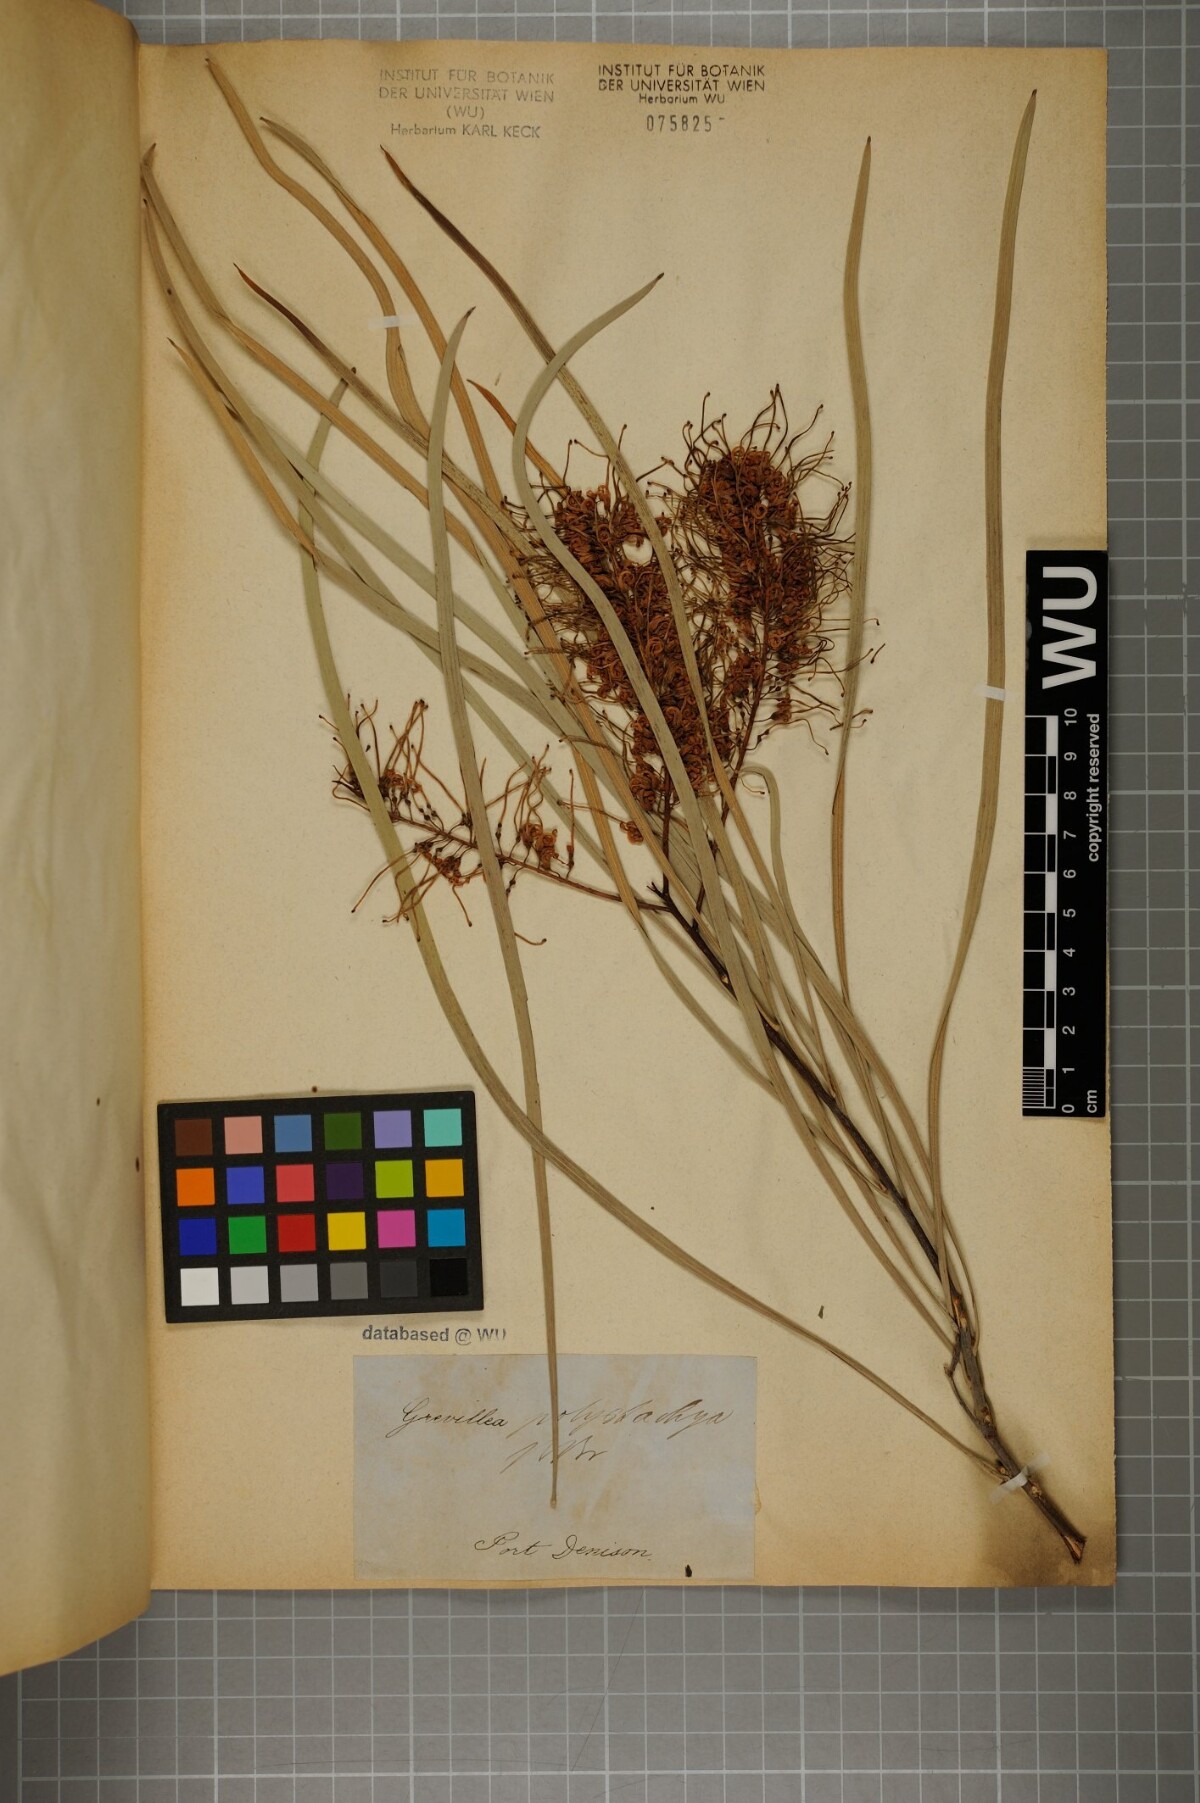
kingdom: Plantae
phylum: Tracheophyta
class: Magnoliopsida
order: Proteales
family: Proteaceae
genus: Grevillea
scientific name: Grevillea parallela
